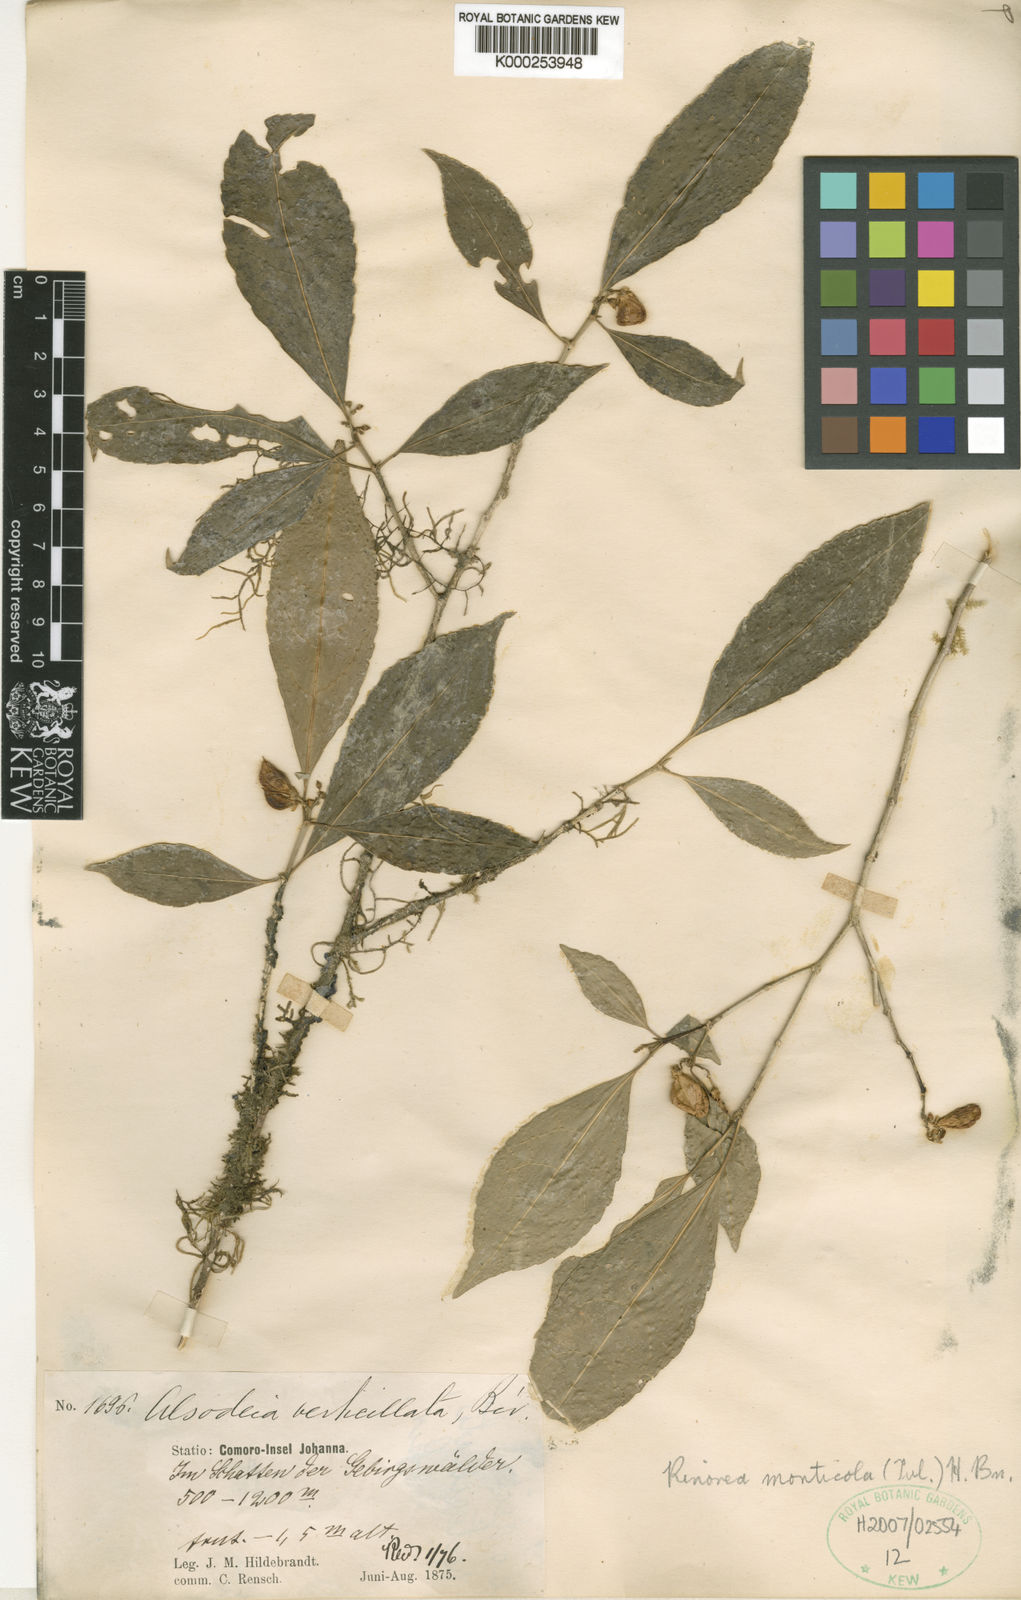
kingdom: Plantae
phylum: Tracheophyta
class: Magnoliopsida
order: Malpighiales
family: Violaceae
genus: Rinorea
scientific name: Rinorea monticola
